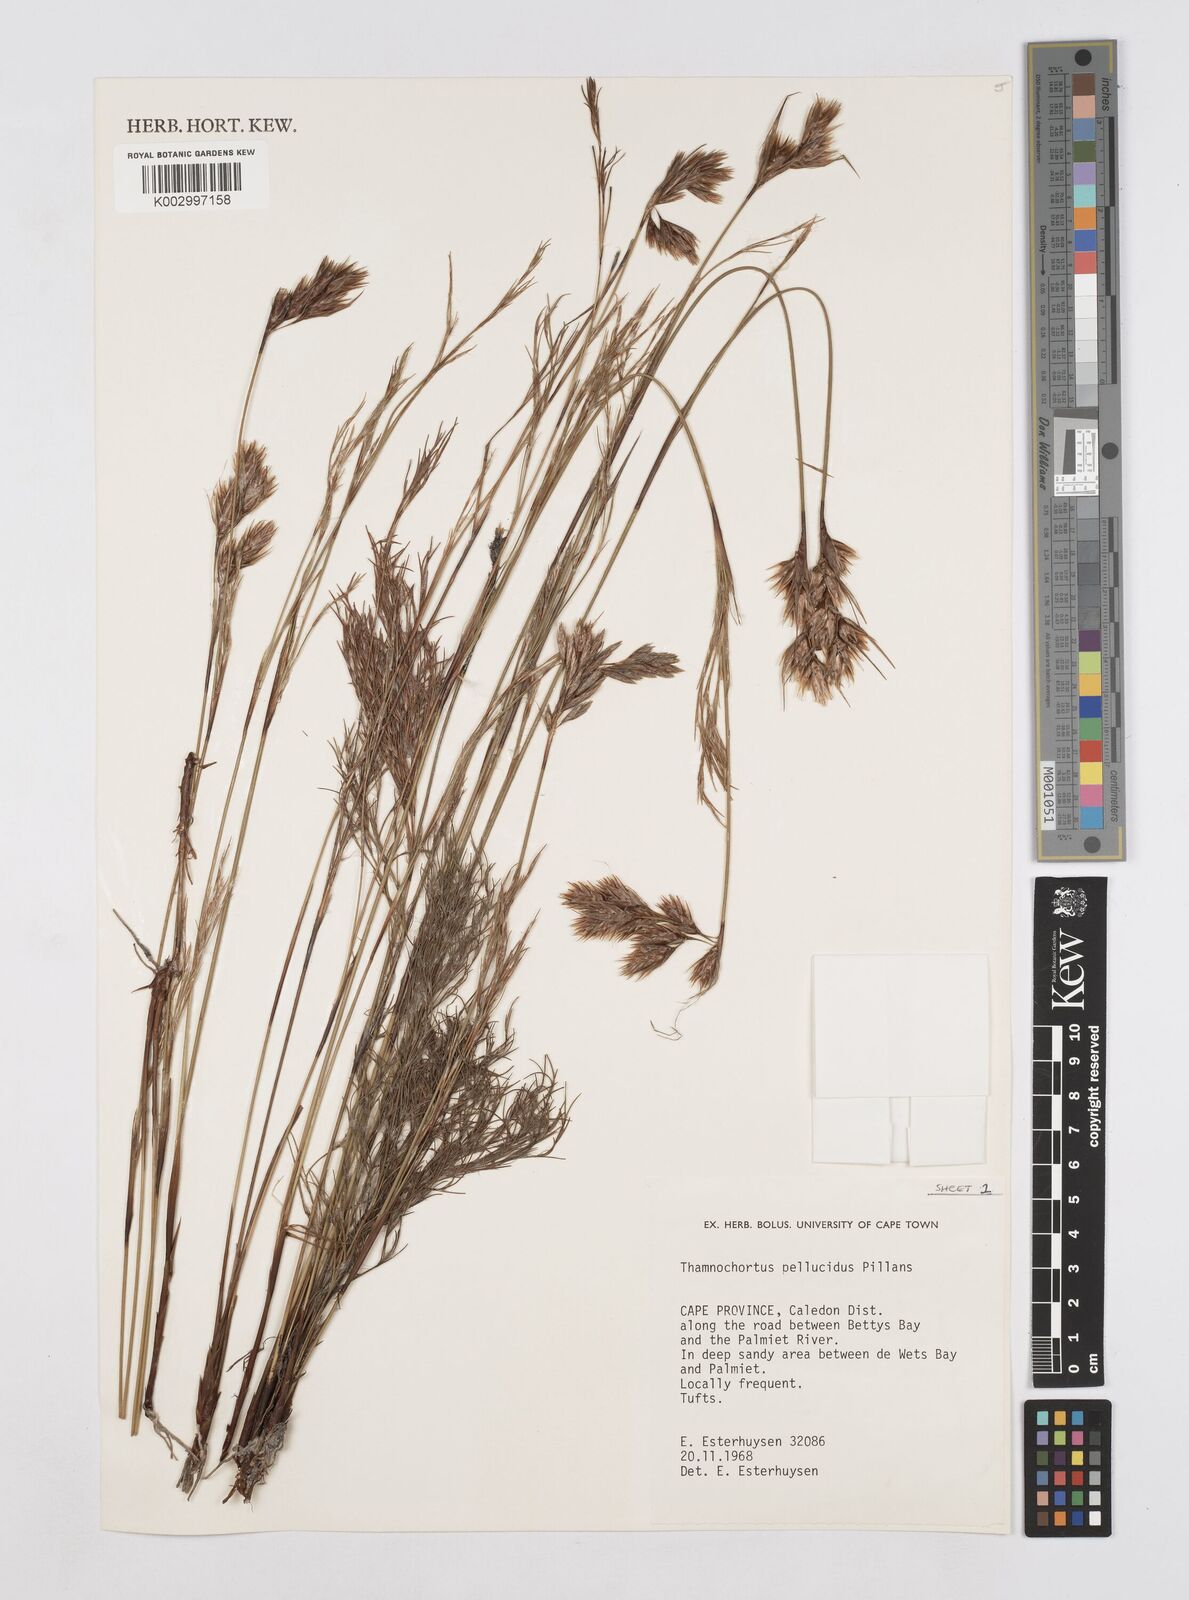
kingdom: Plantae
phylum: Tracheophyta
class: Liliopsida
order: Poales
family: Restionaceae
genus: Thamnochortus
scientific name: Thamnochortus pellucidus
